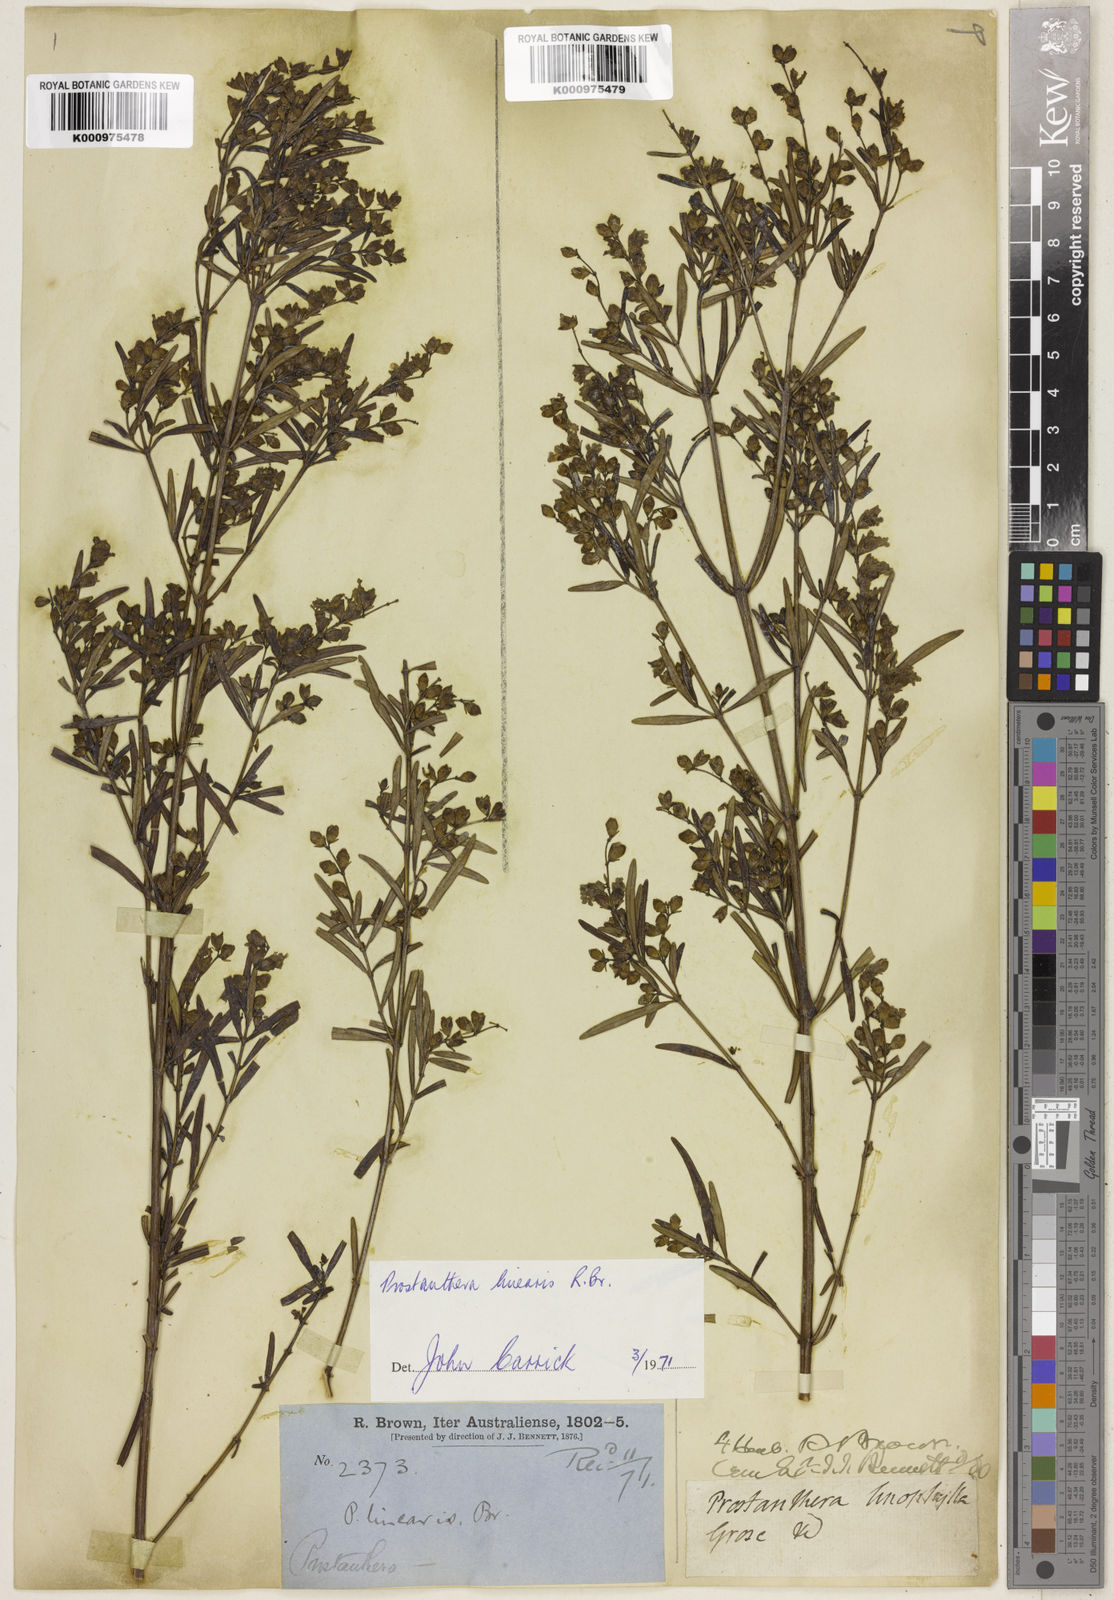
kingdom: Plantae
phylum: Tracheophyta
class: Magnoliopsida
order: Lamiales
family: Lamiaceae
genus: Prostanthera
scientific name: Prostanthera linearis
